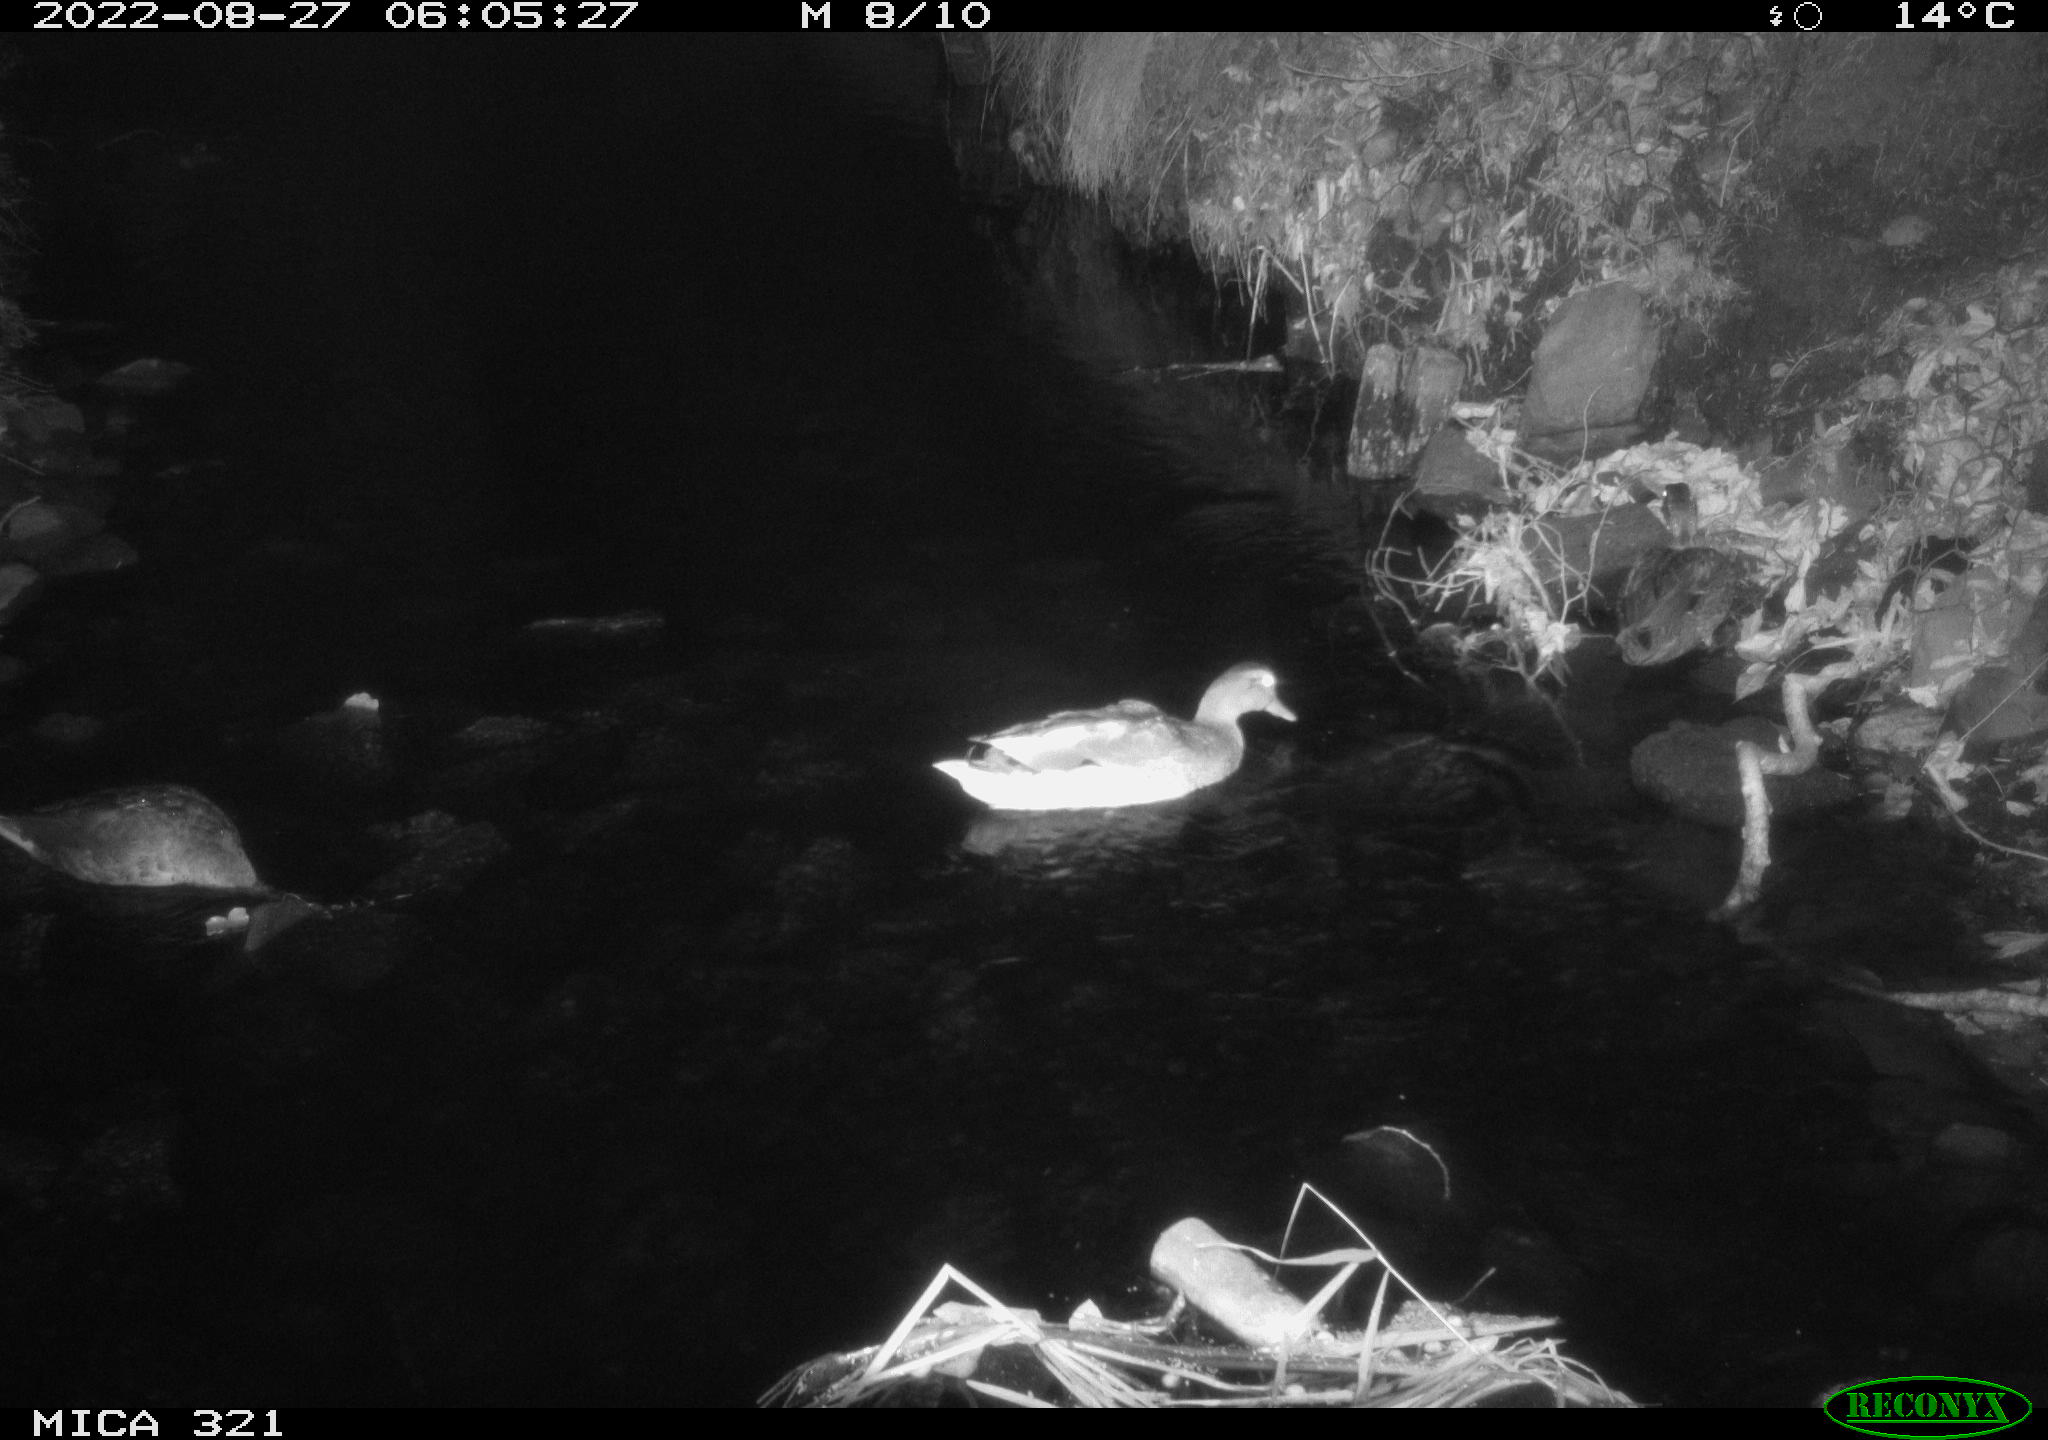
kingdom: Animalia
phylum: Chordata
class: Aves
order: Anseriformes
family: Anatidae
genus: Anas
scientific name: Anas platyrhynchos
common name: Mallard
